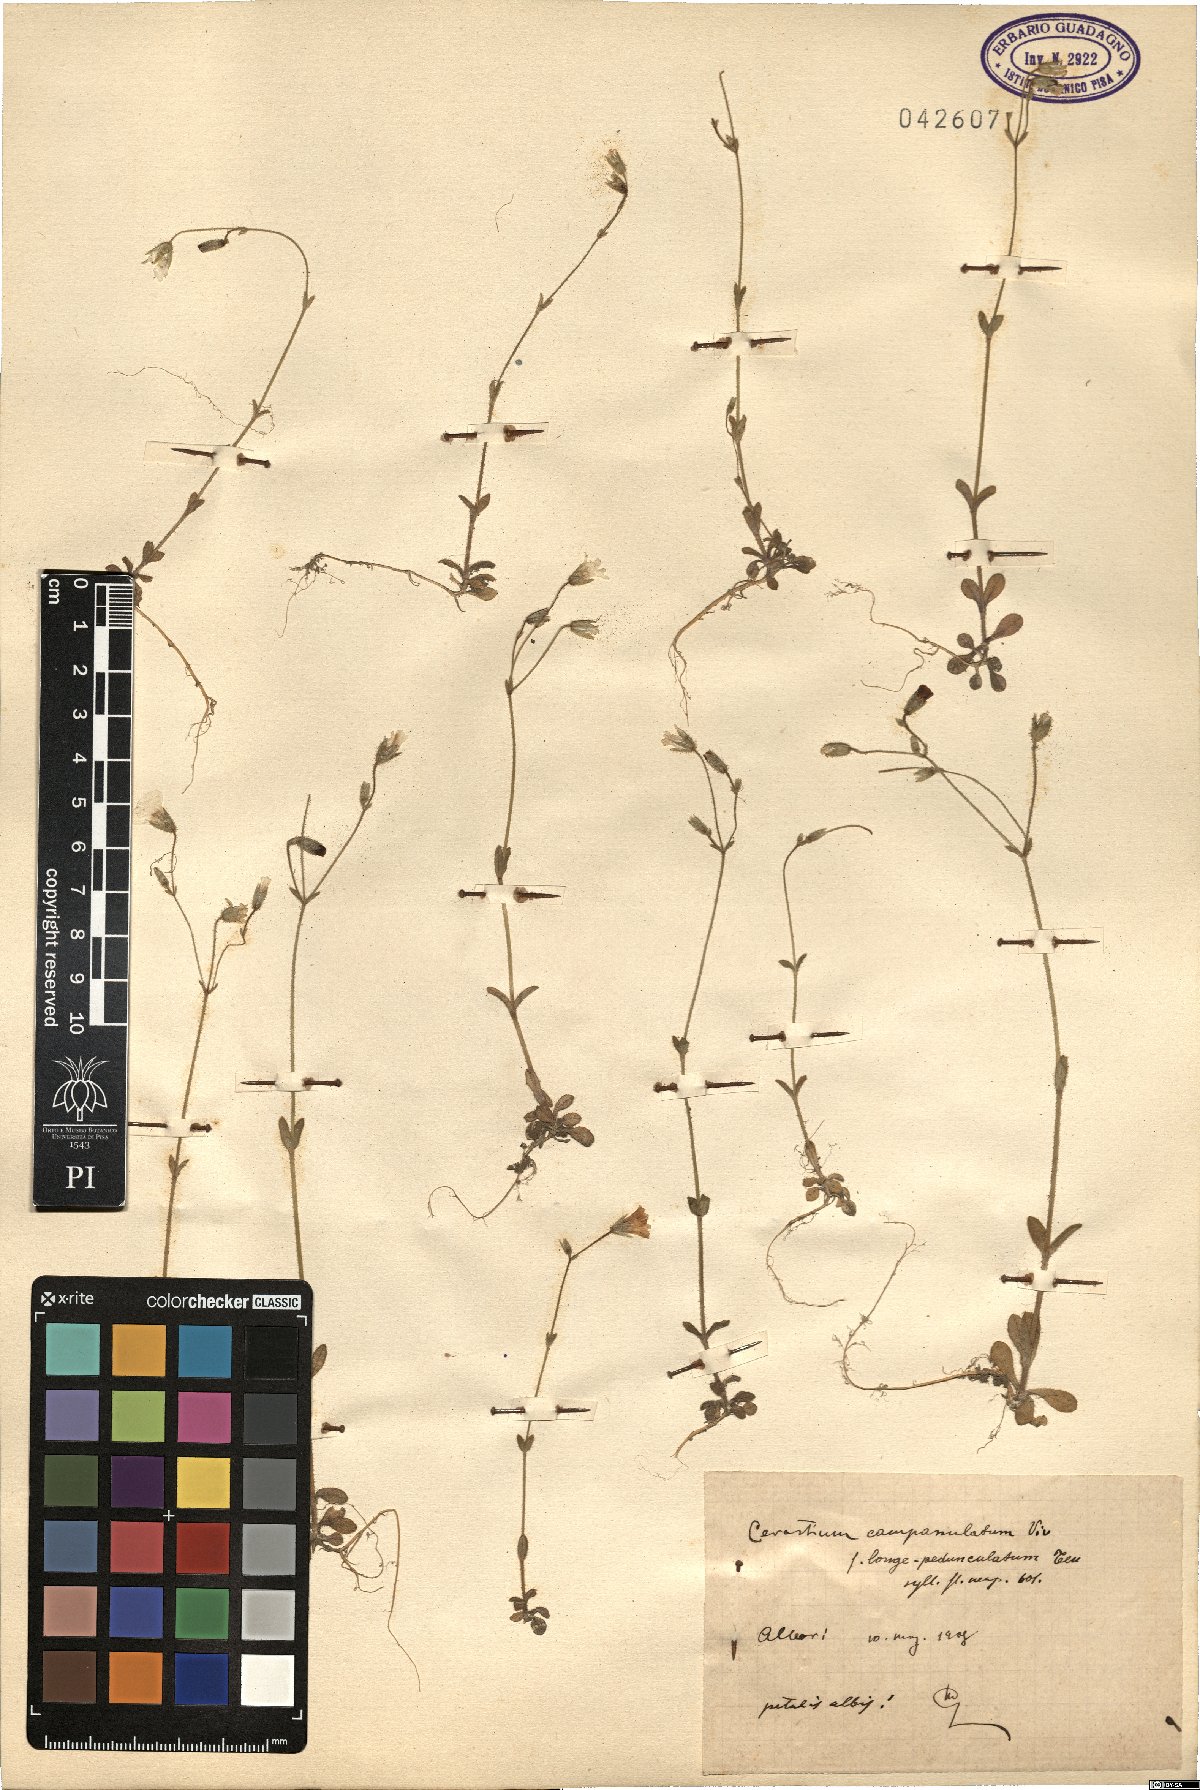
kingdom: Plantae
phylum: Tracheophyta
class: Magnoliopsida
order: Caryophyllales
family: Caryophyllaceae
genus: Cerastium
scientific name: Cerastium ligusticum
